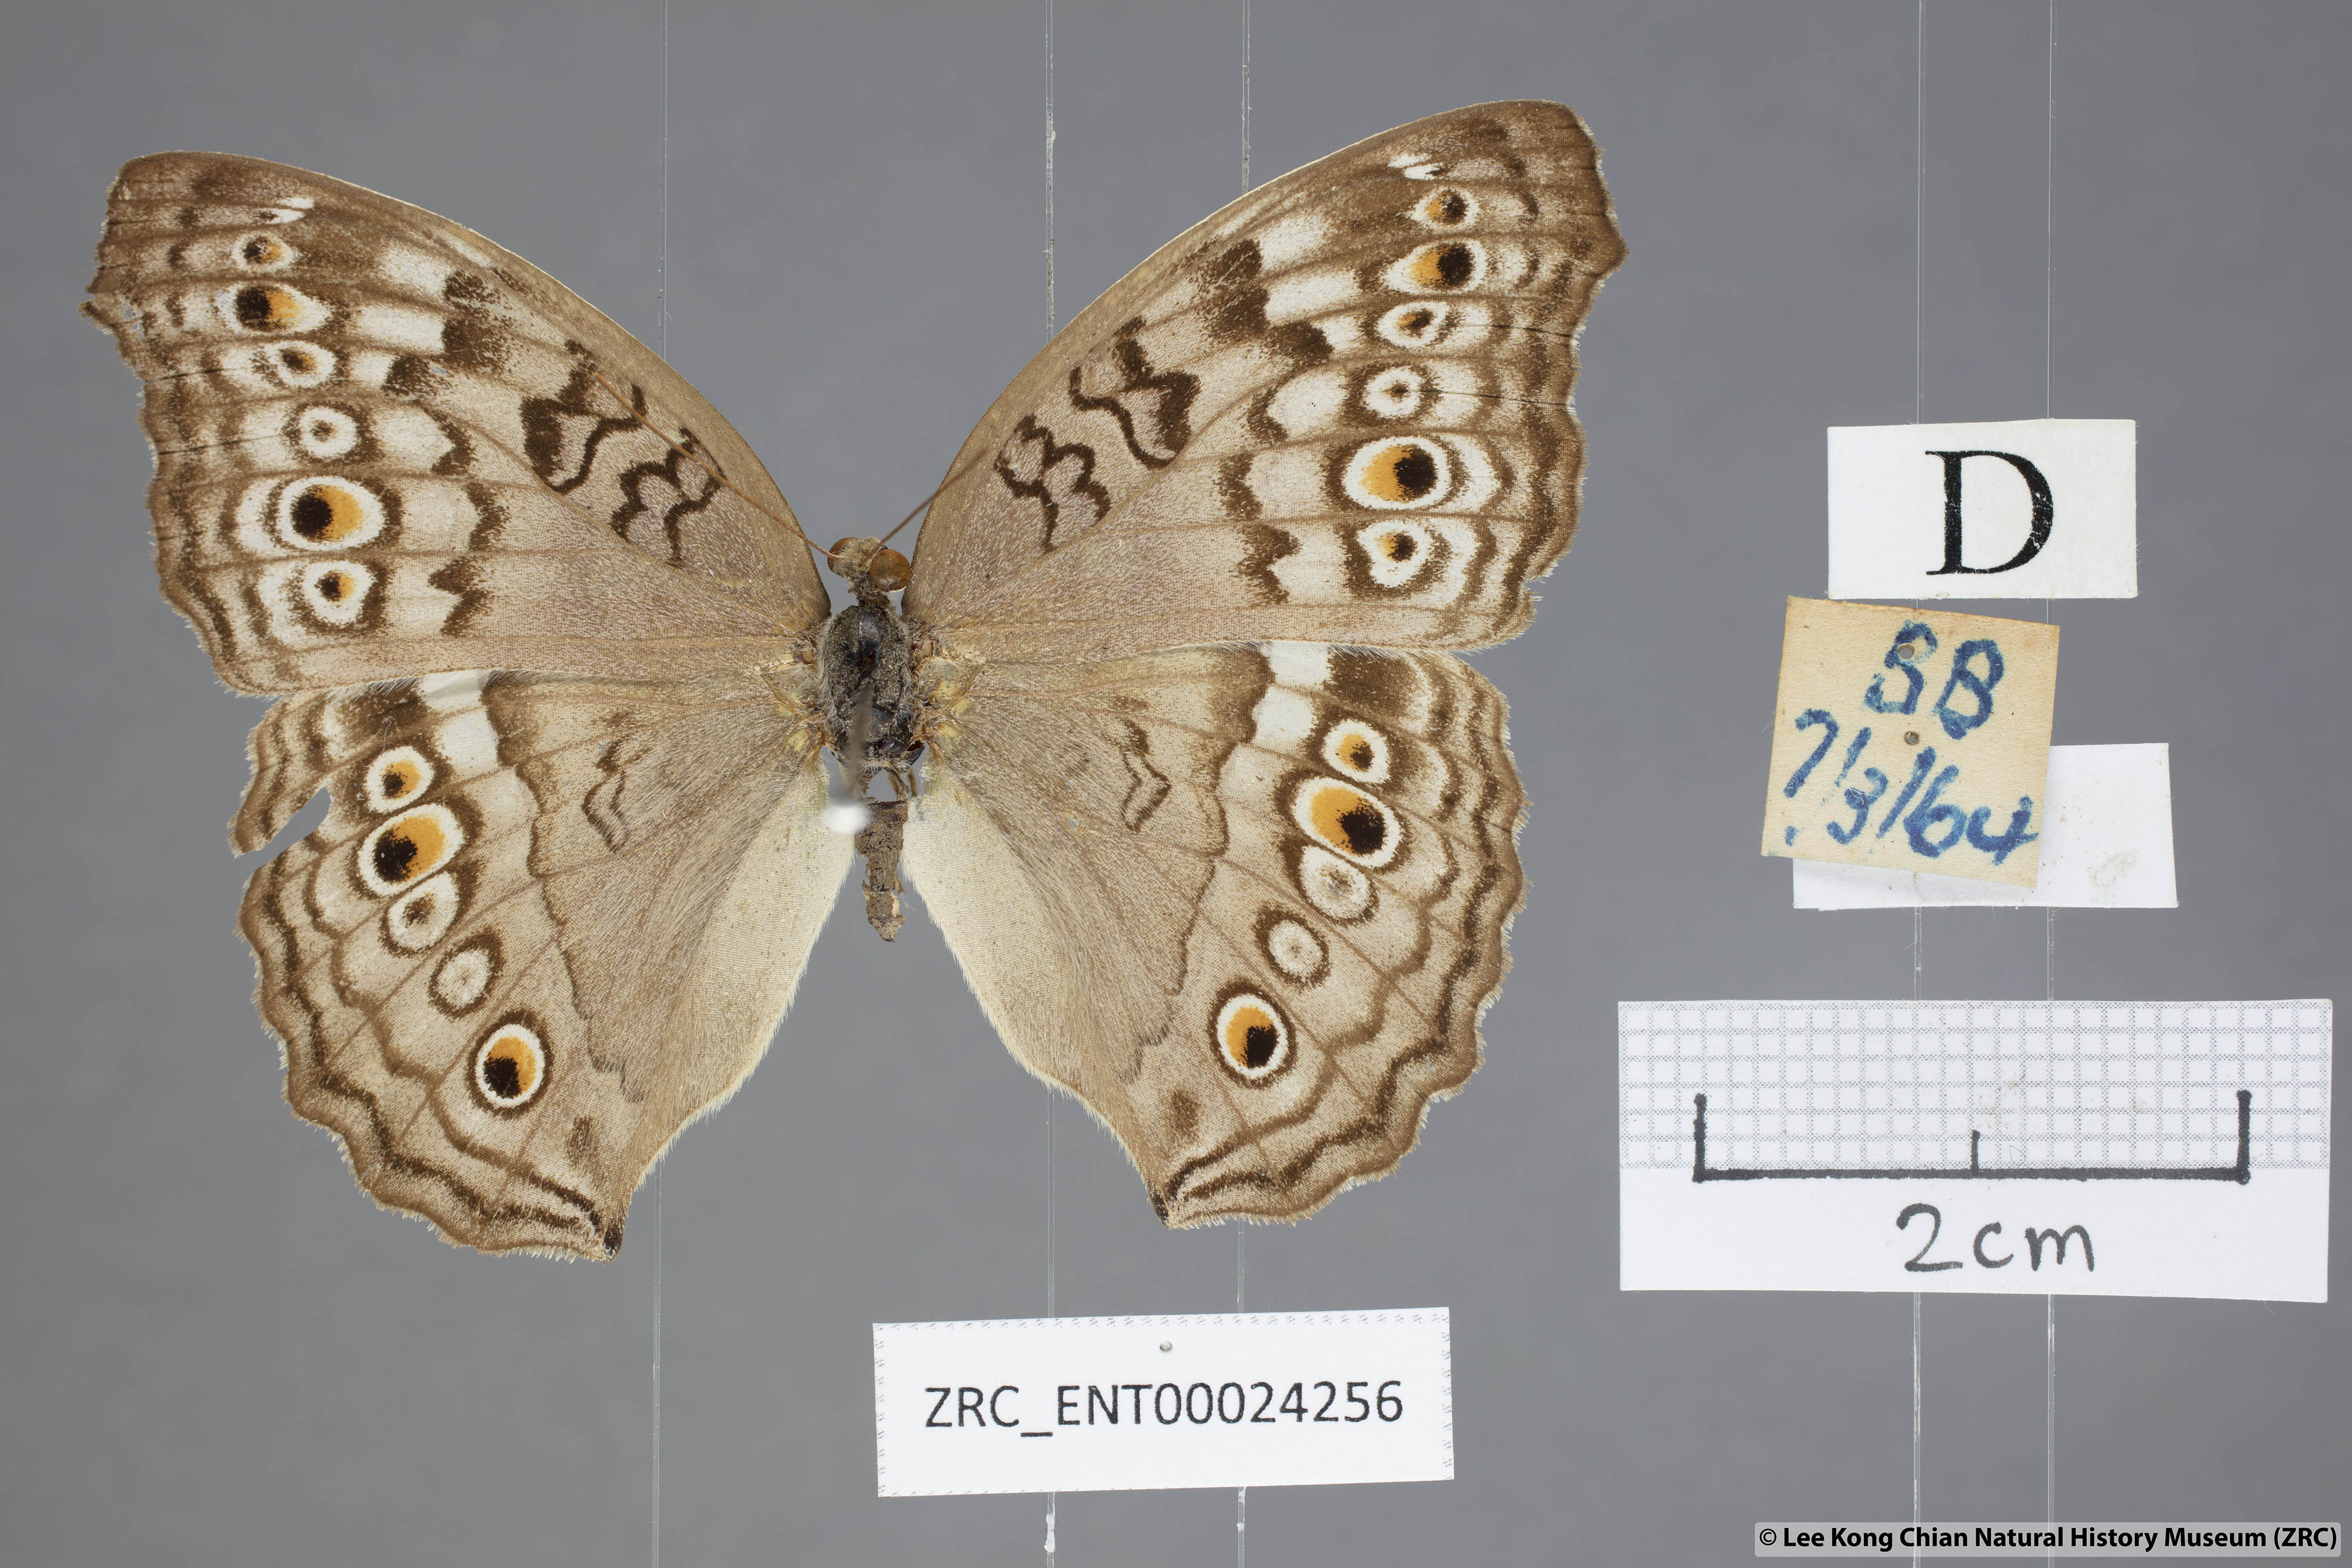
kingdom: Animalia
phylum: Arthropoda
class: Insecta
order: Lepidoptera
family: Nymphalidae
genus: Junonia
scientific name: Junonia atlites
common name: Grey pansy
